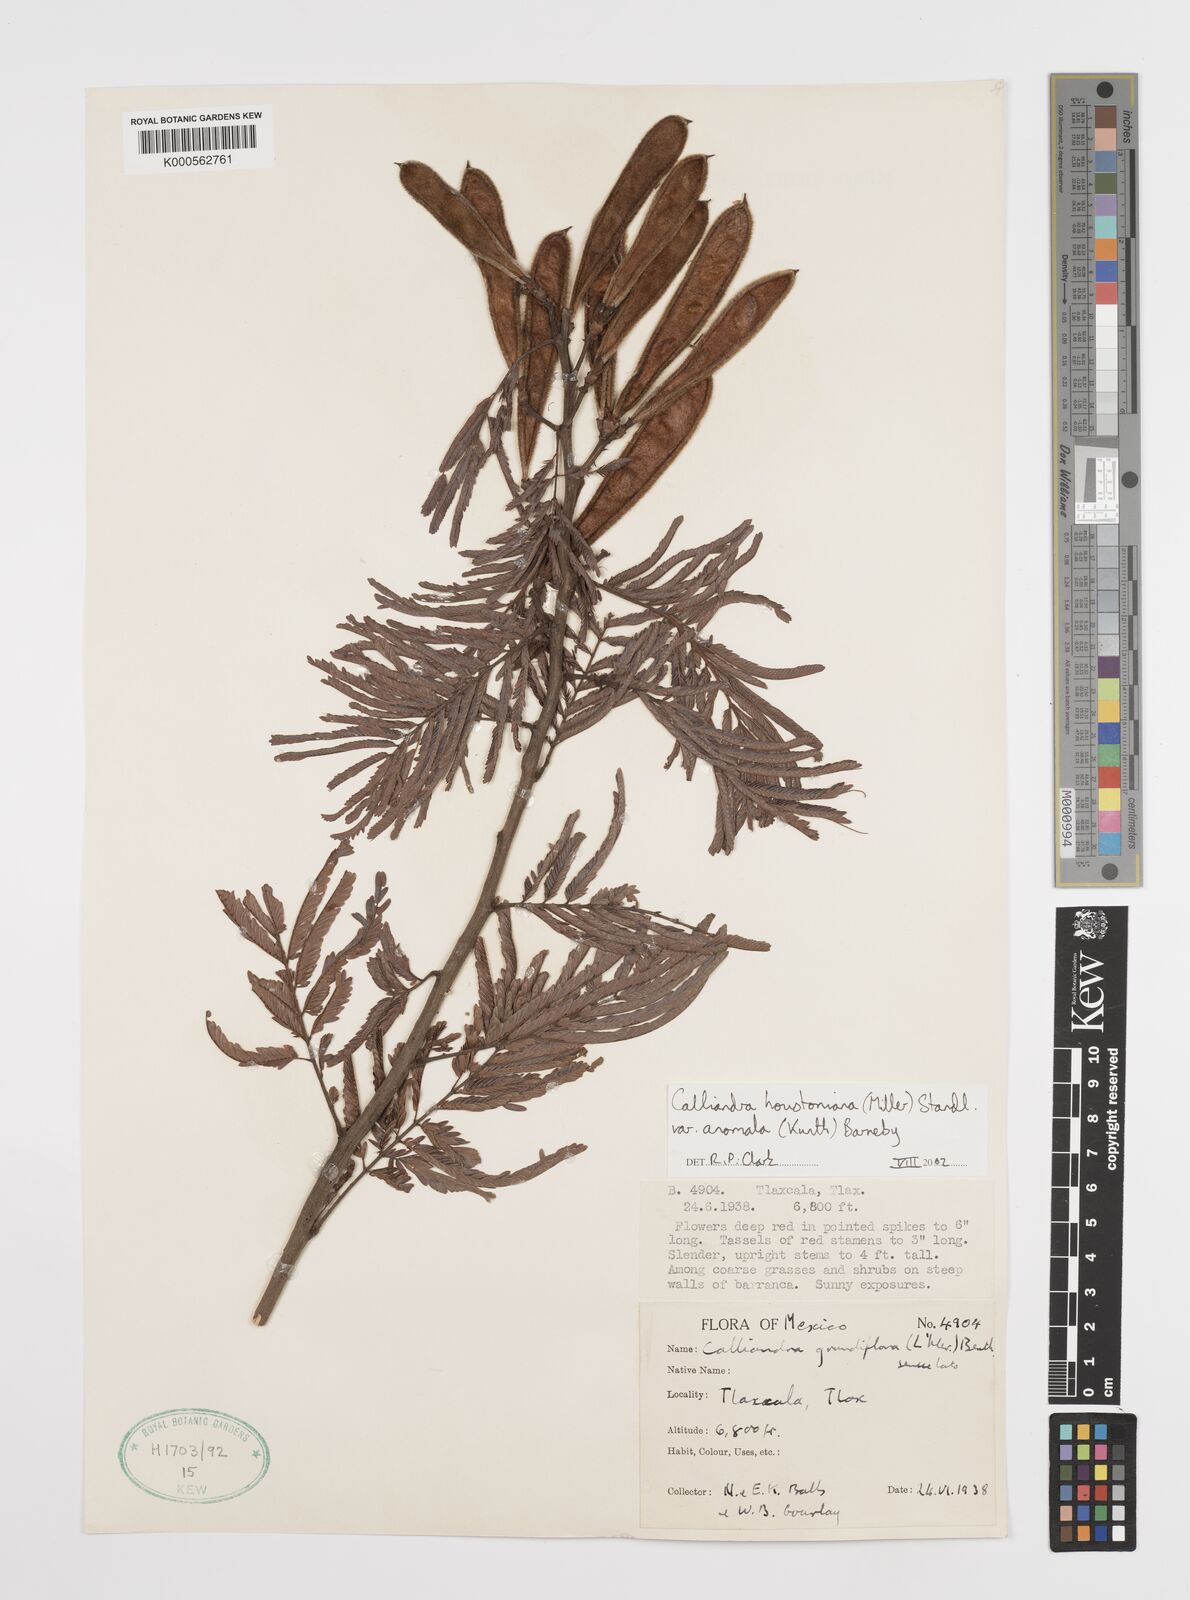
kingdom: Plantae
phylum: Tracheophyta
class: Magnoliopsida
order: Fabales
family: Fabaceae
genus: Calliandra
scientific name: Calliandra houstoniana
